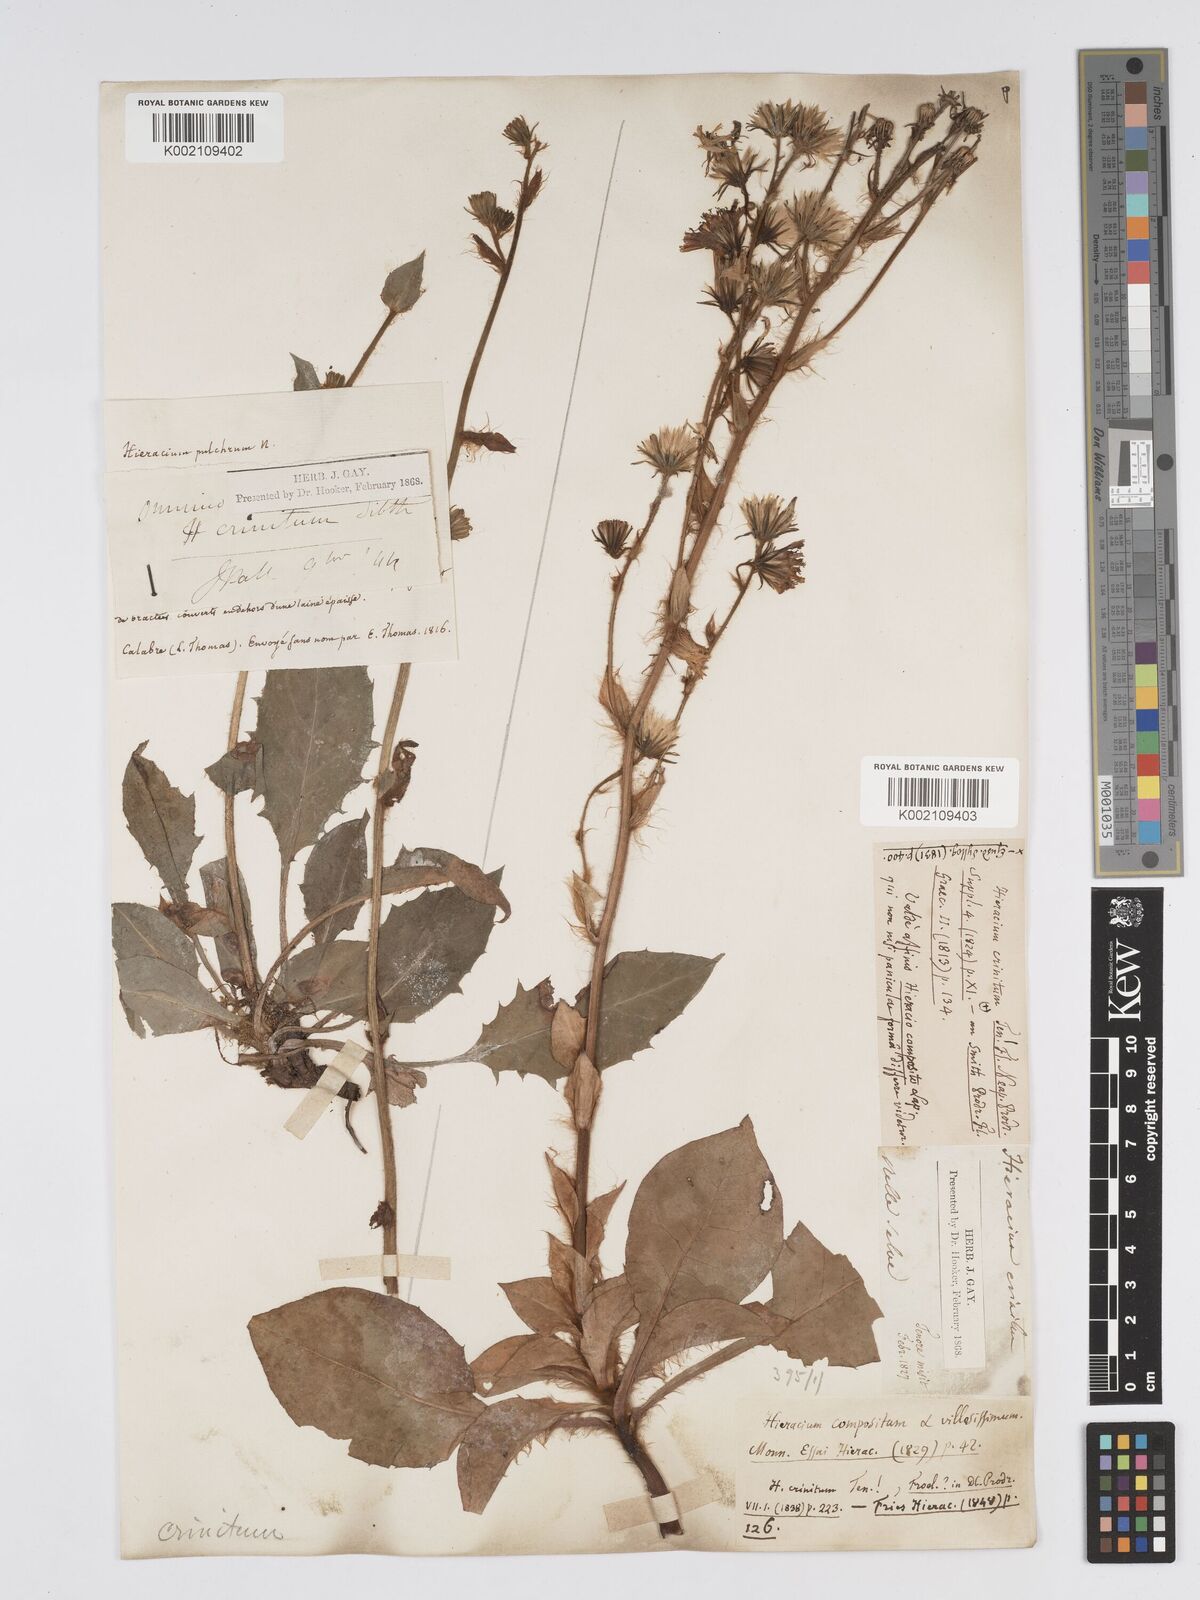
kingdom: Plantae
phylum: Tracheophyta
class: Magnoliopsida
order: Asterales
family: Asteraceae
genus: Hieracium
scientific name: Hieracium racemosum
